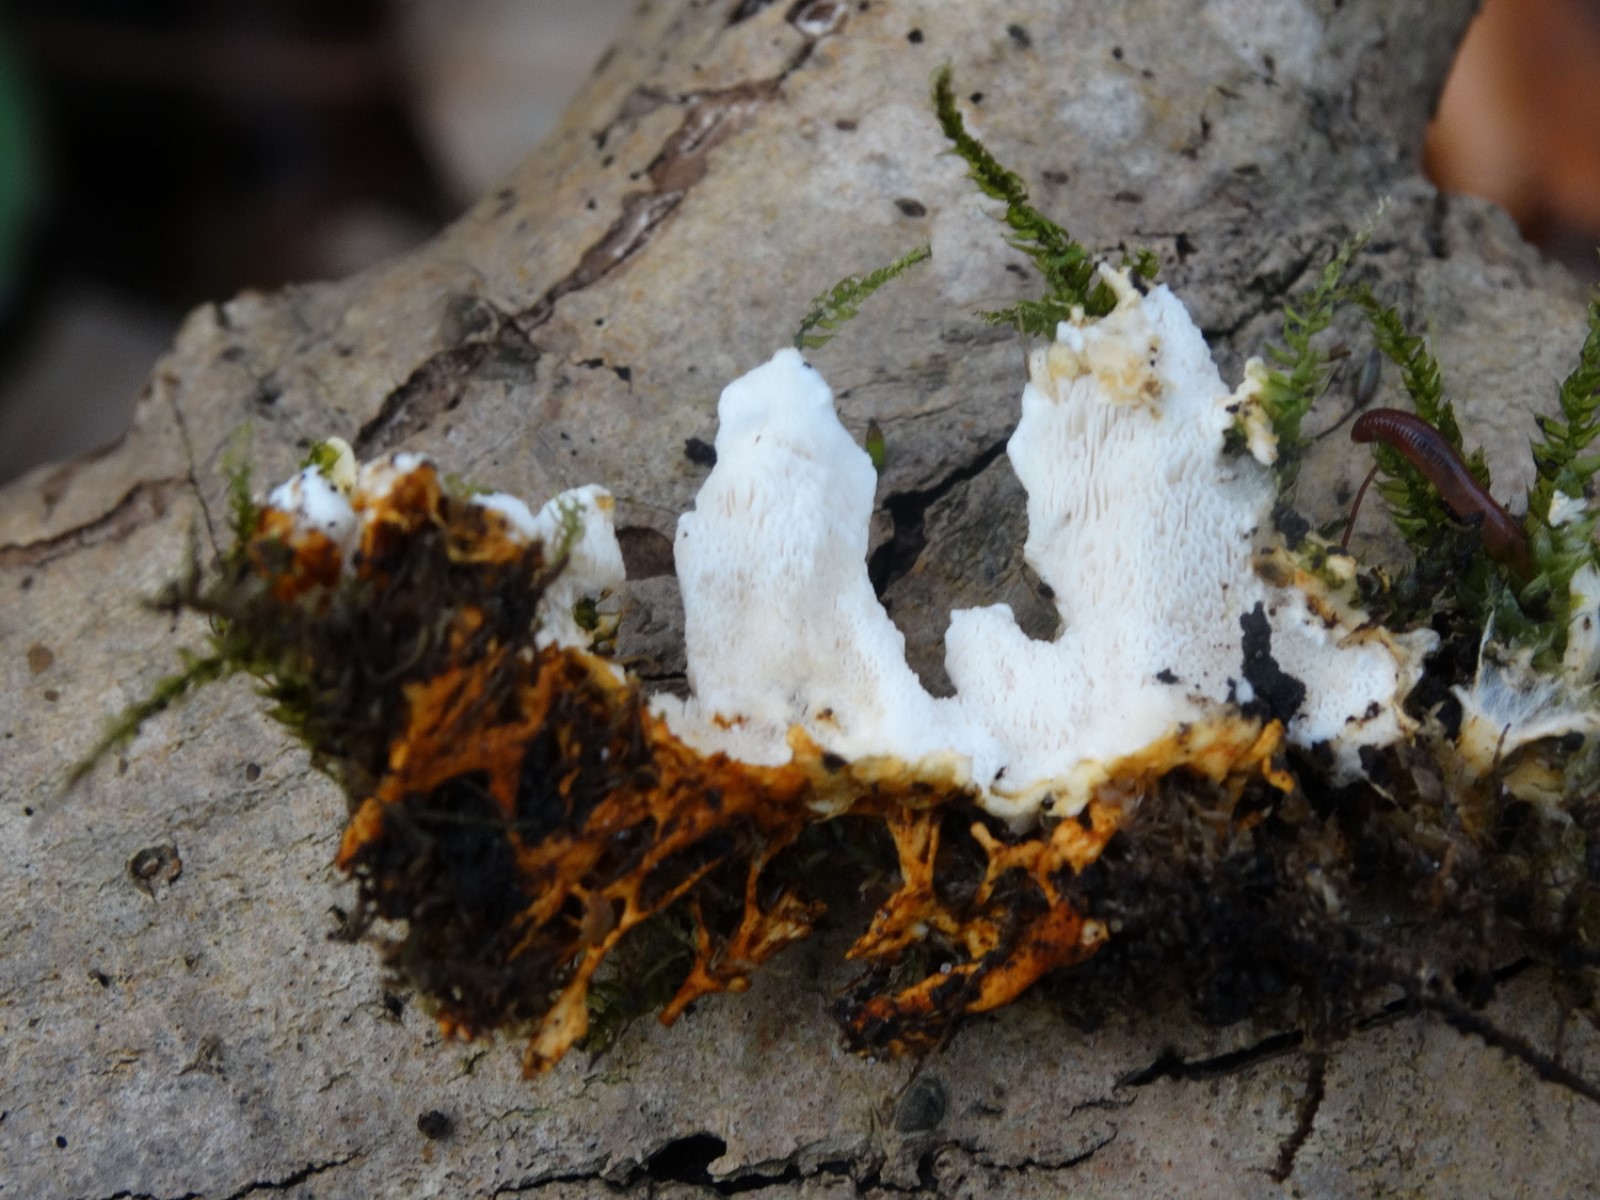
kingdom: Fungi
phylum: Basidiomycota
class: Agaricomycetes
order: Polyporales
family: Steccherinaceae
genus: Loweomyces
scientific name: Loweomyces wynneae
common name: krybende blødporesvamp
